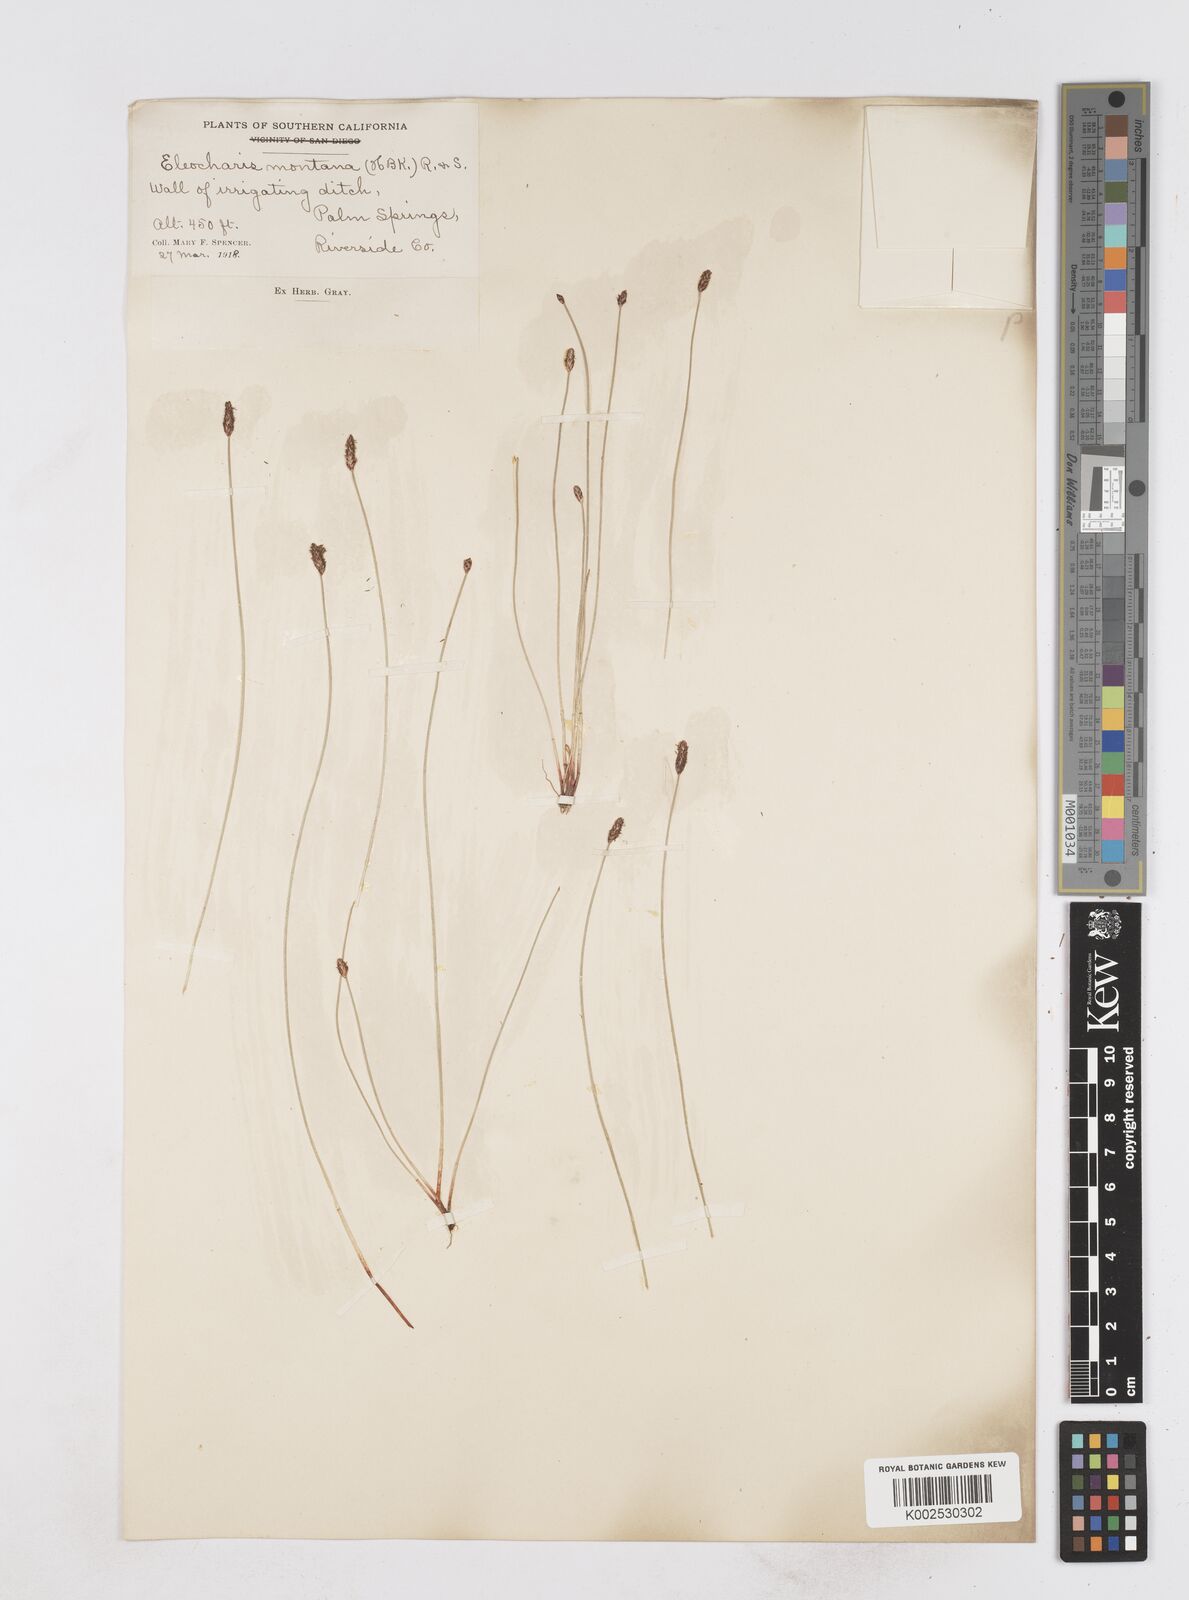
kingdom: Plantae
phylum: Tracheophyta
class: Liliopsida
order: Poales
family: Cyperaceae
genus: Eleocharis
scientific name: Eleocharis montana
